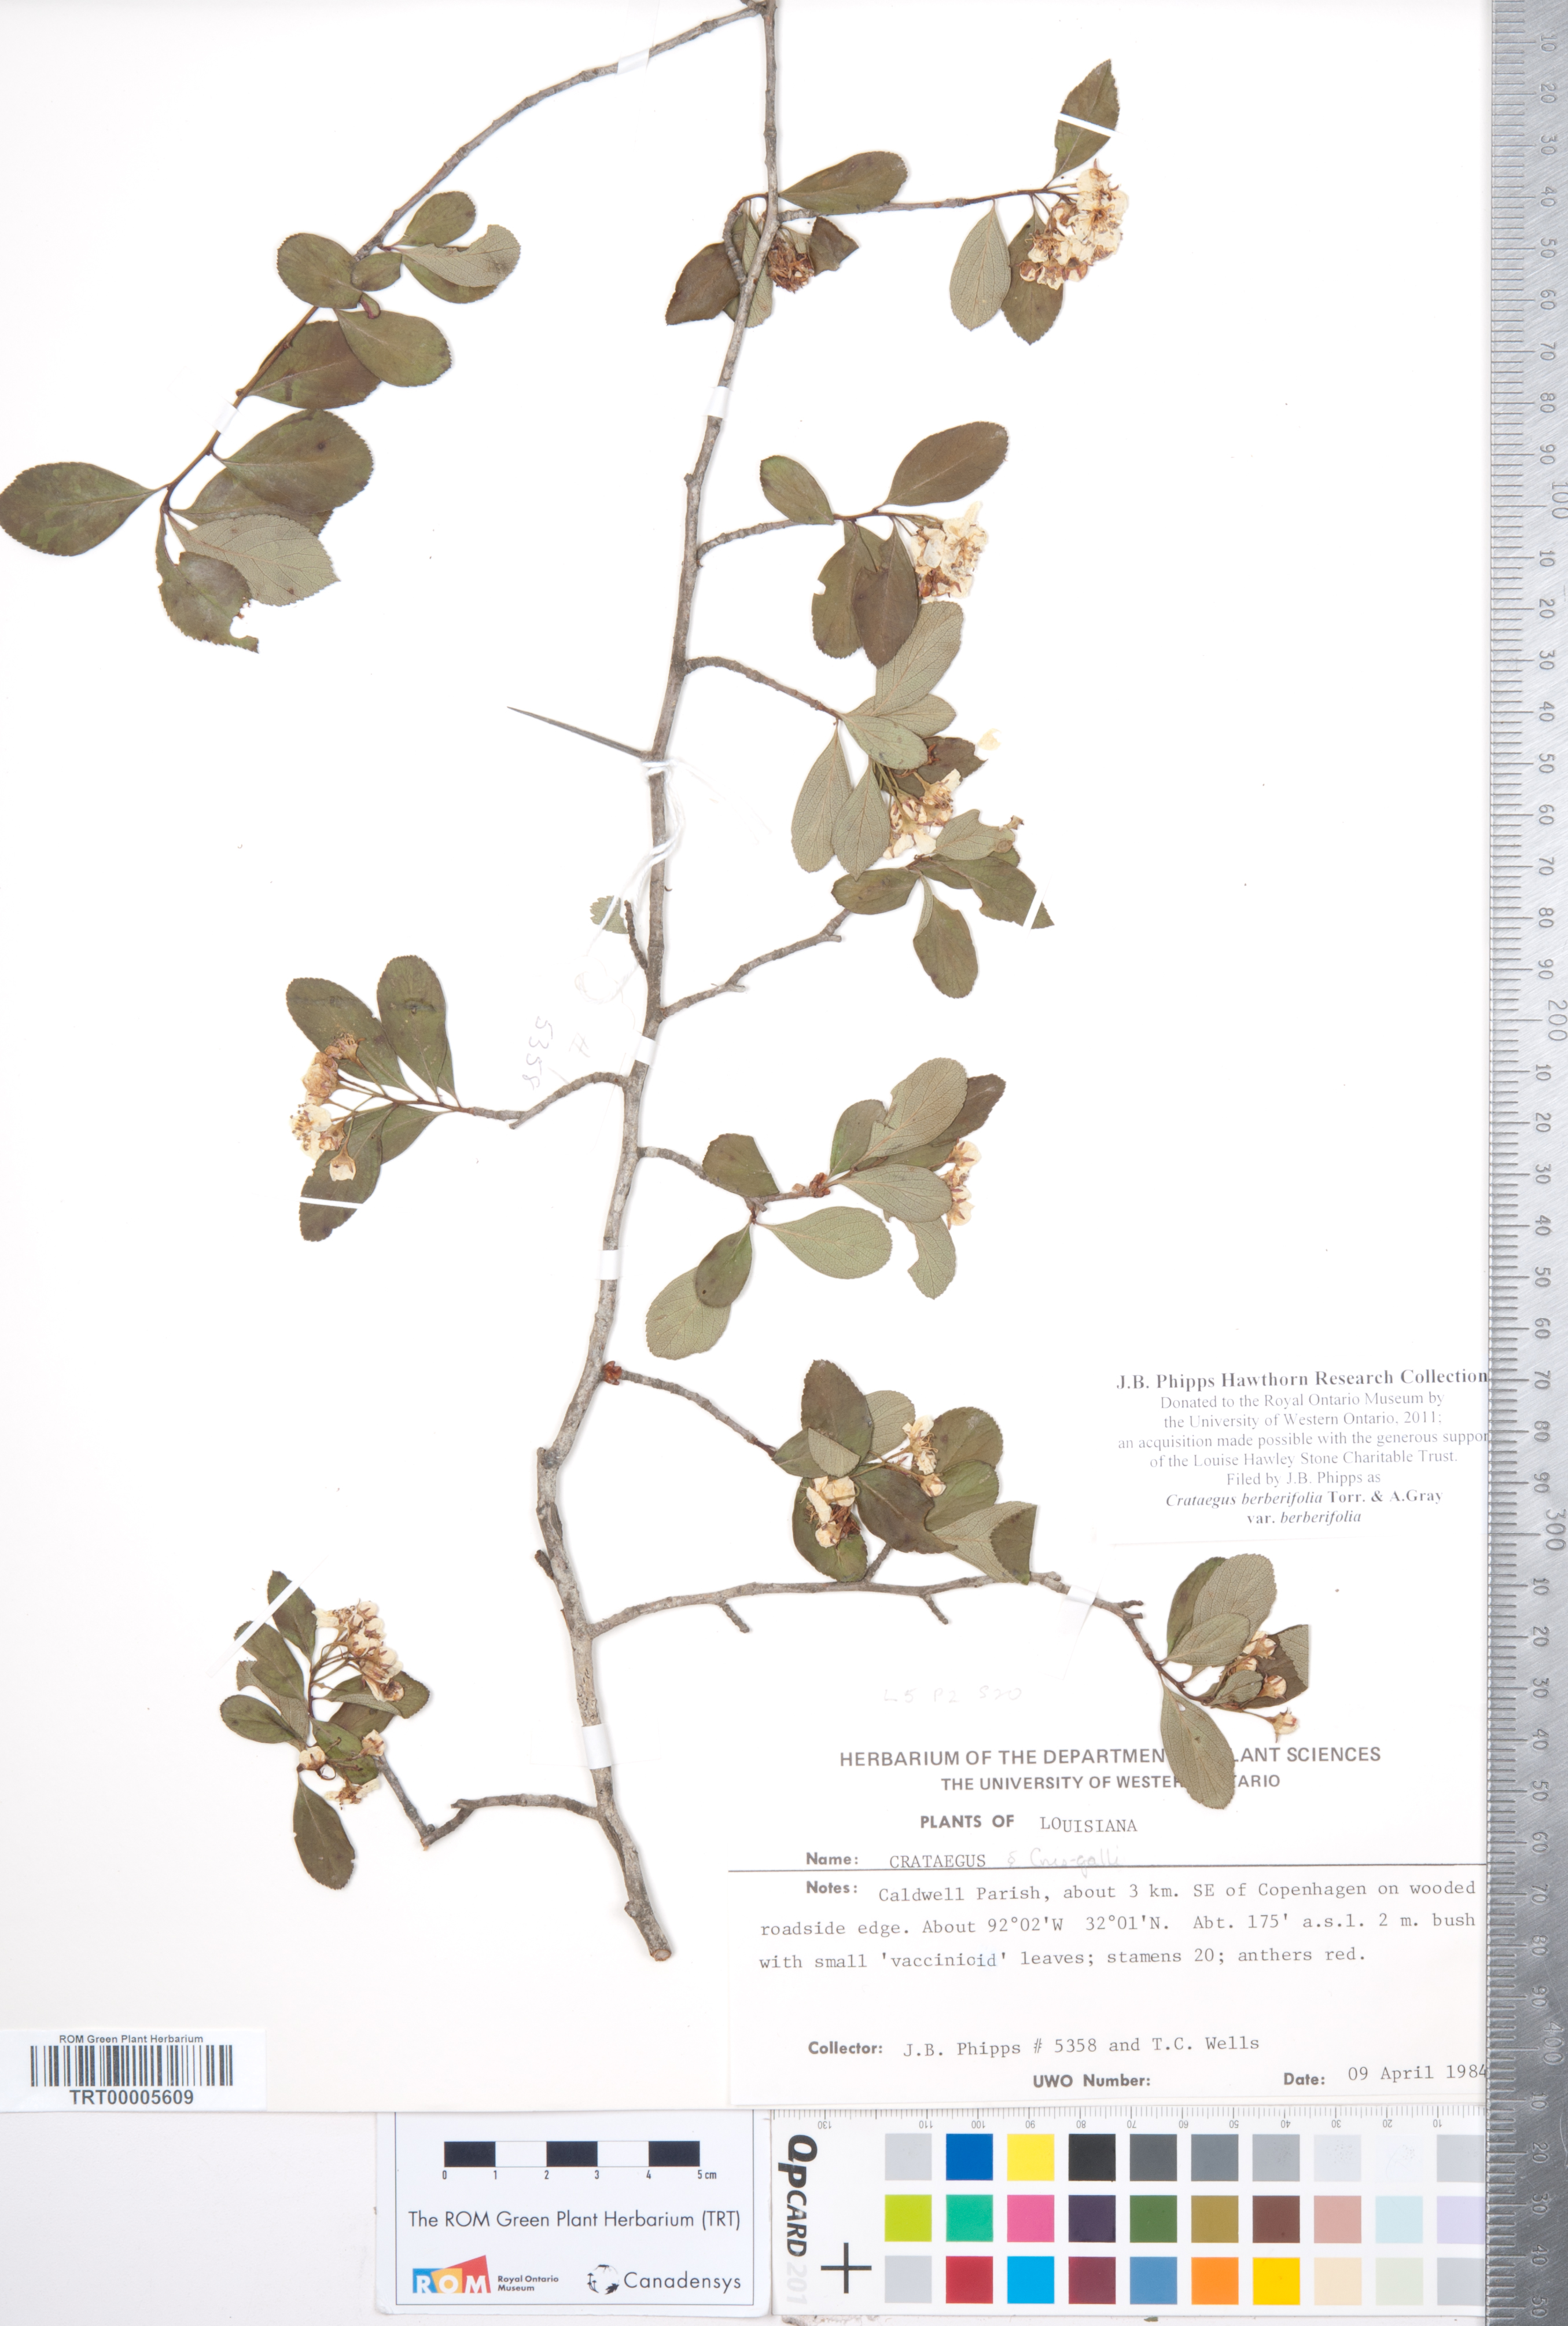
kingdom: Plantae
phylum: Tracheophyta
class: Magnoliopsida
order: Rosales
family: Rosaceae
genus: Crataegus
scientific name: Crataegus berberifolia
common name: Barberry hawthorn
